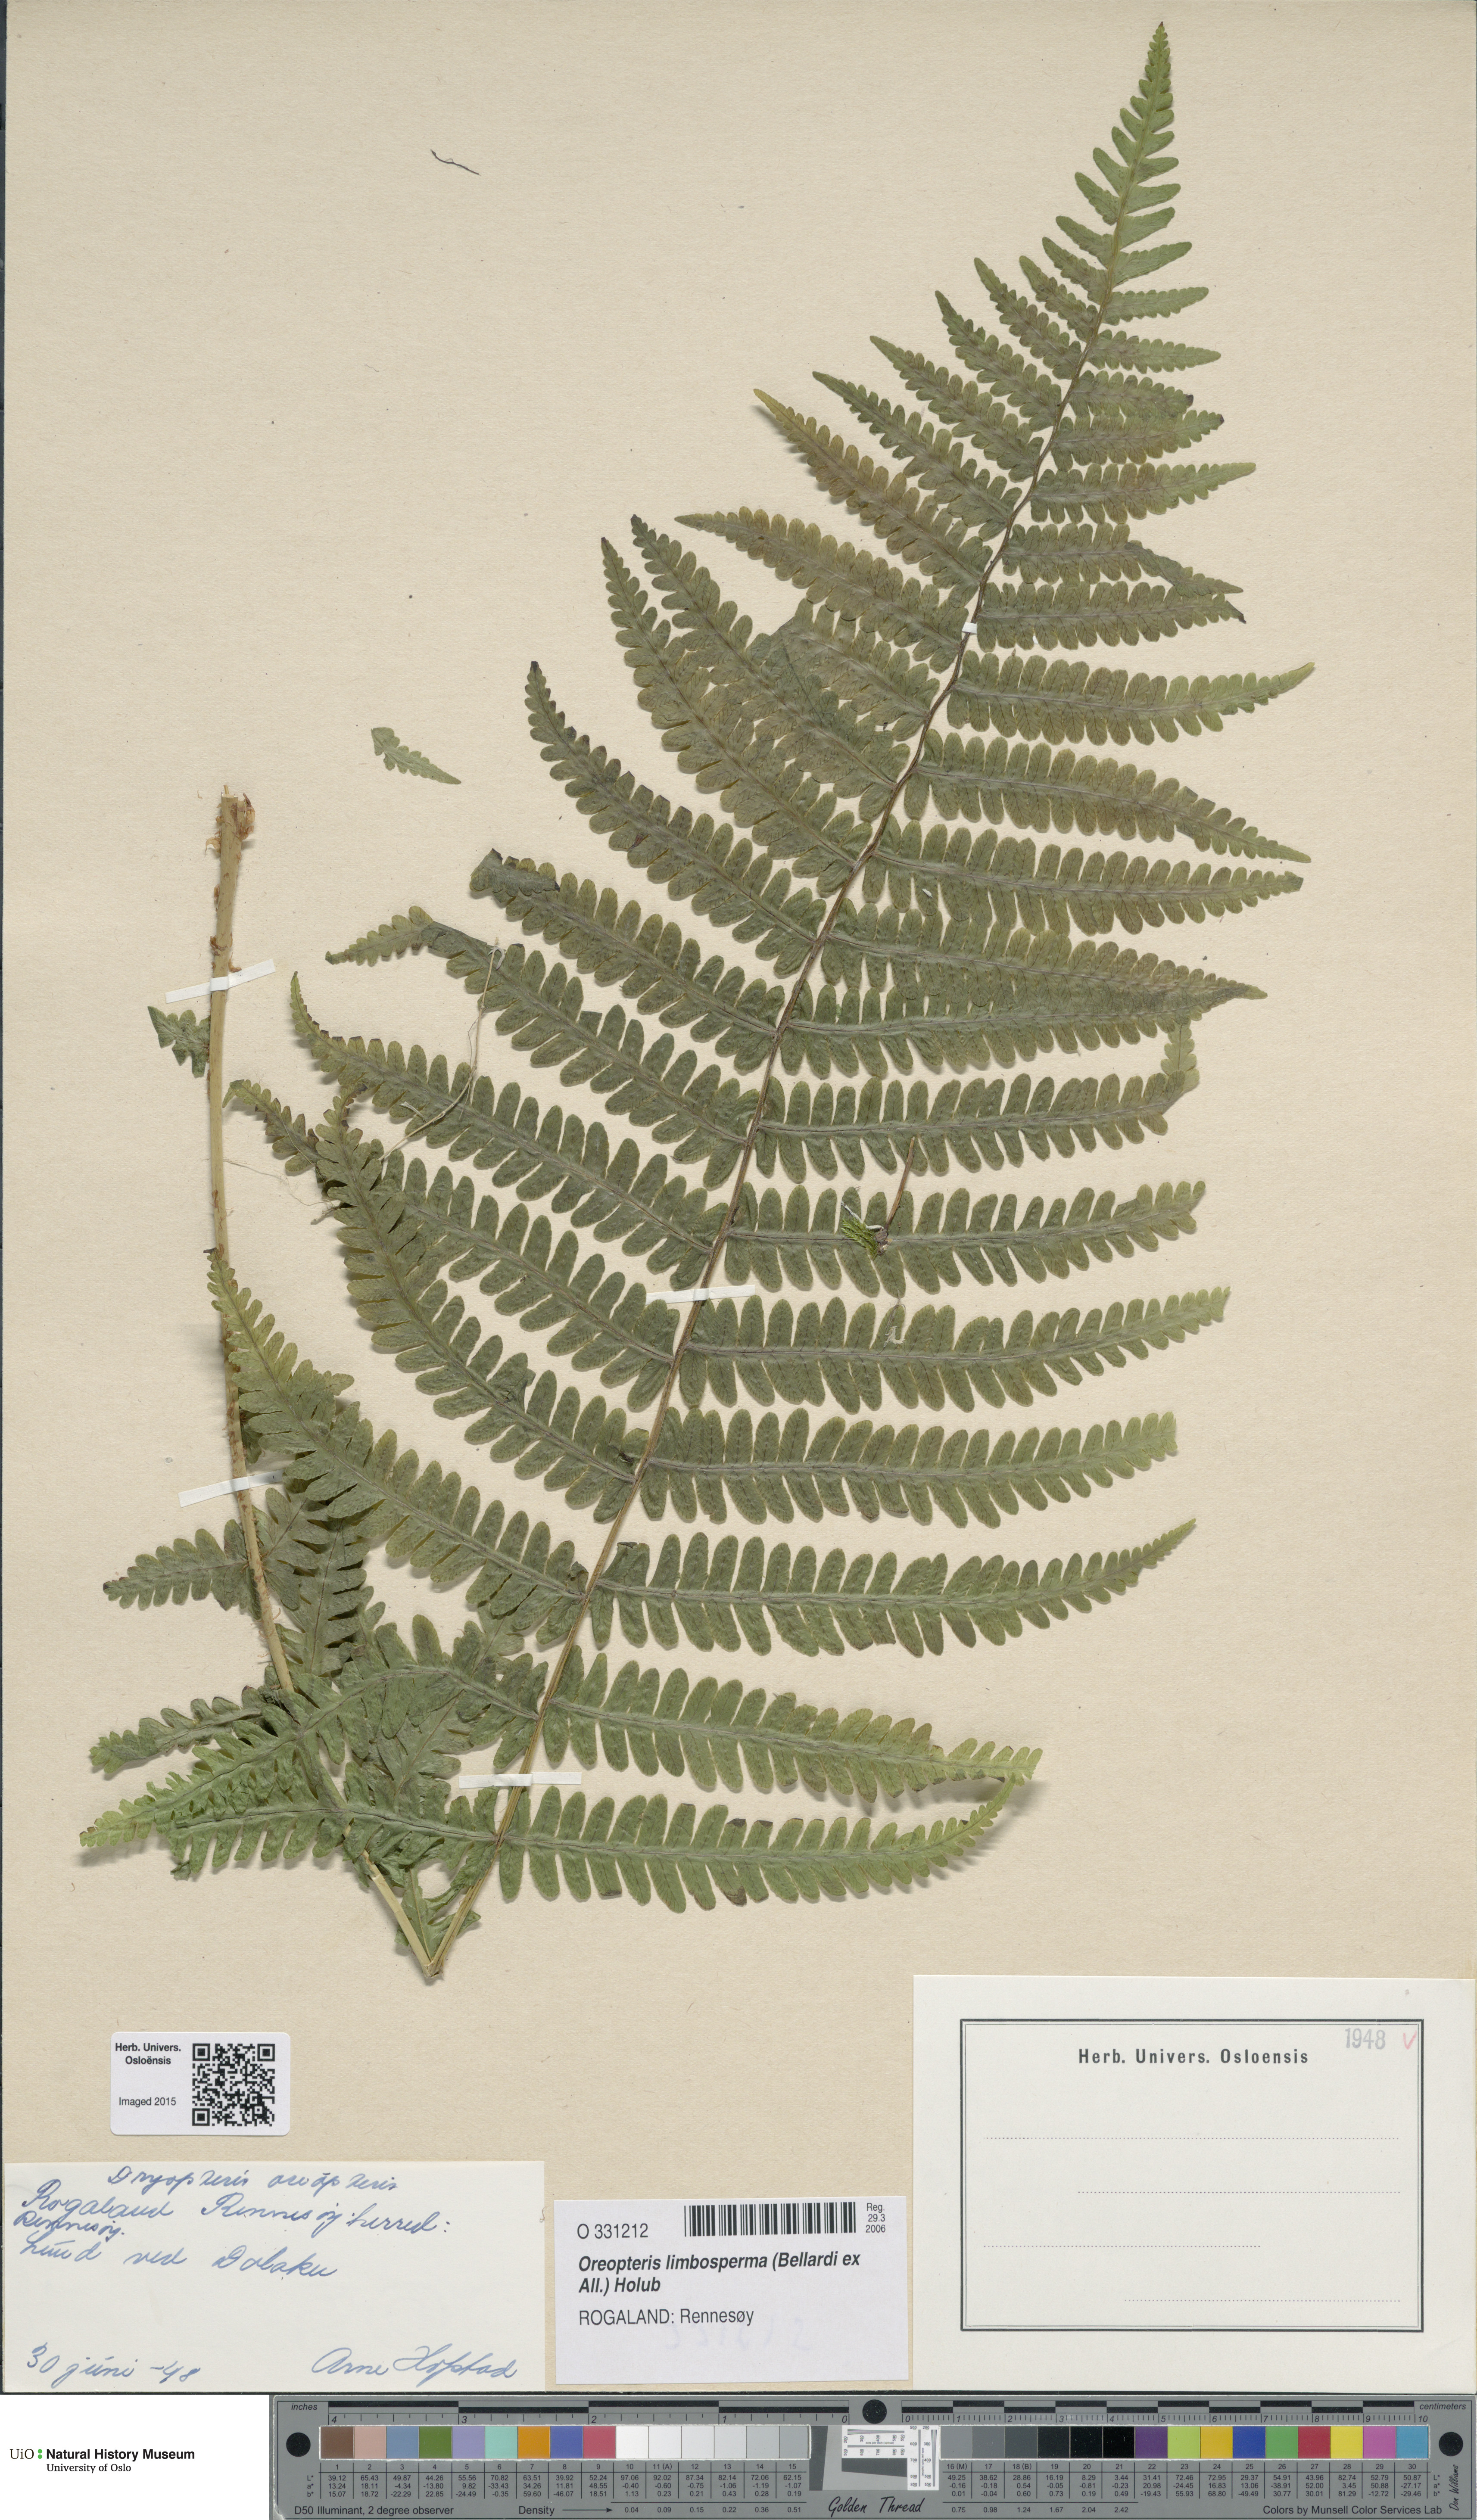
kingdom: Plantae
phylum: Tracheophyta
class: Polypodiopsida
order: Polypodiales
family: Thelypteridaceae
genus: Oreopteris
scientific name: Oreopteris limbosperma
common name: Lemon-scented fern
